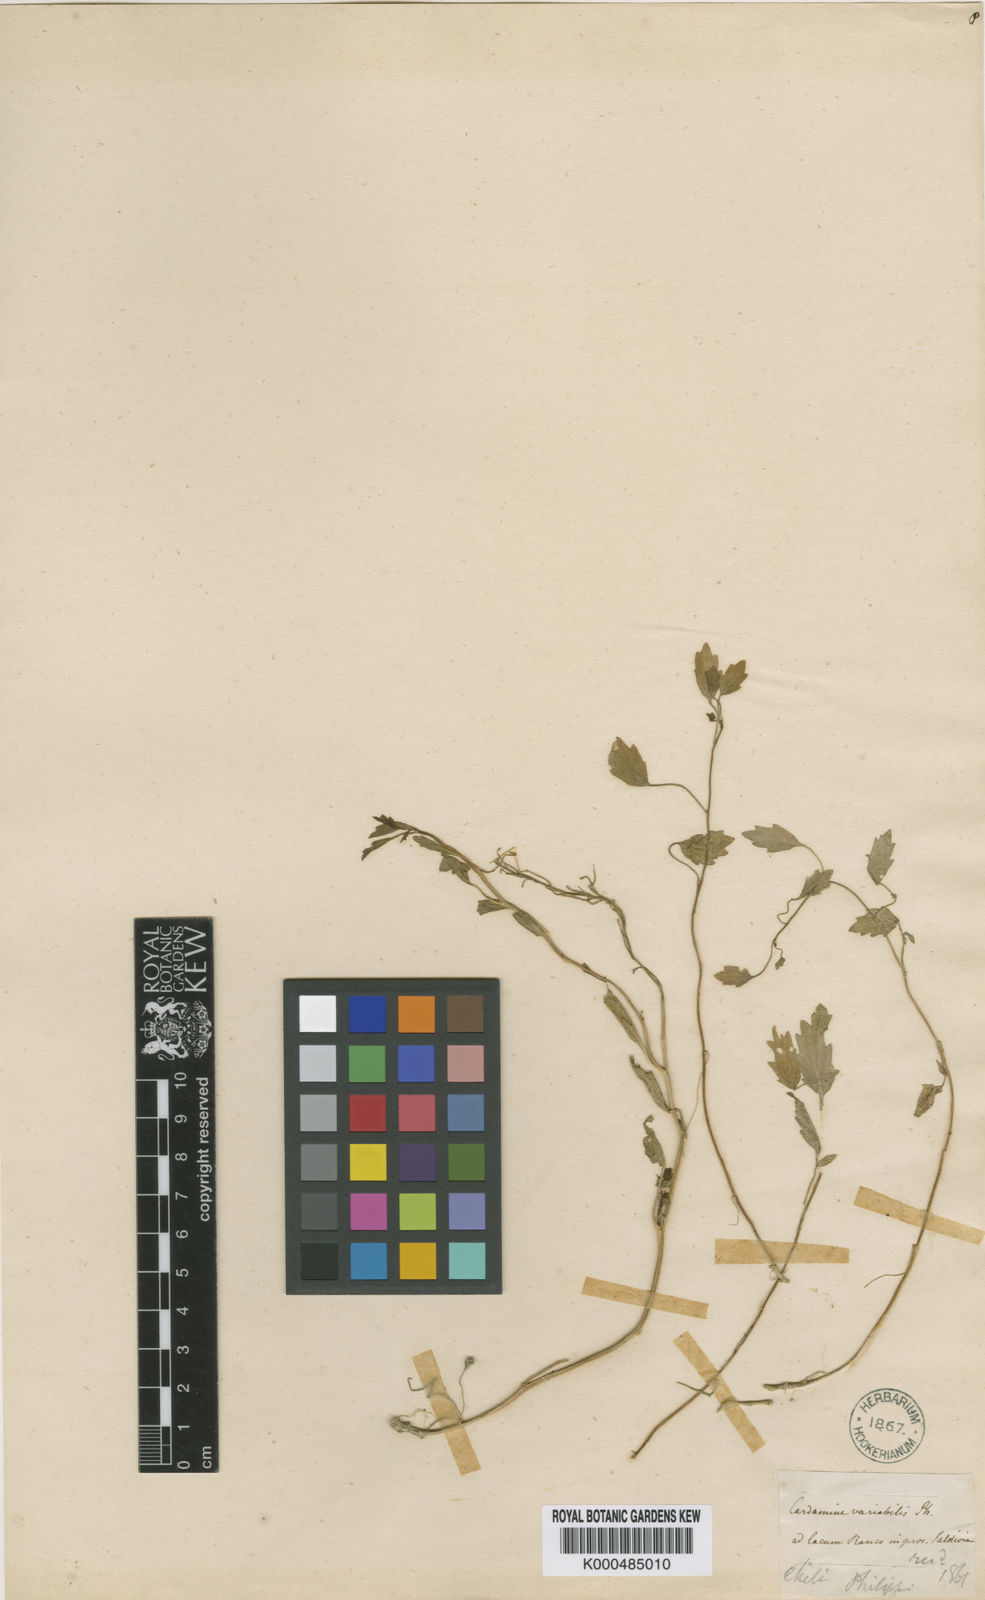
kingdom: Plantae
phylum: Tracheophyta
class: Magnoliopsida
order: Brassicales
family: Brassicaceae
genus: Cardamine
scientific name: Cardamine variabilis
